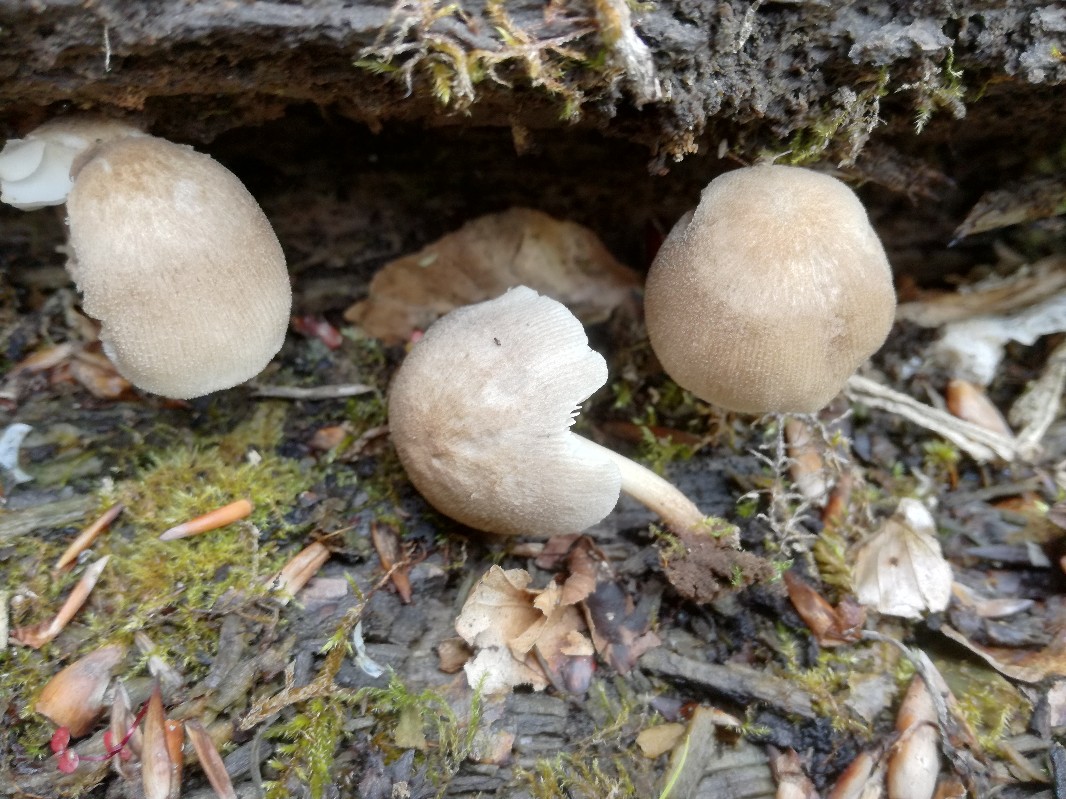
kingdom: Fungi
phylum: Basidiomycota
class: Agaricomycetes
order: Agaricales
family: Pluteaceae
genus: Pluteus
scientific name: Pluteus longistriatus
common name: hjul-skærmhat
